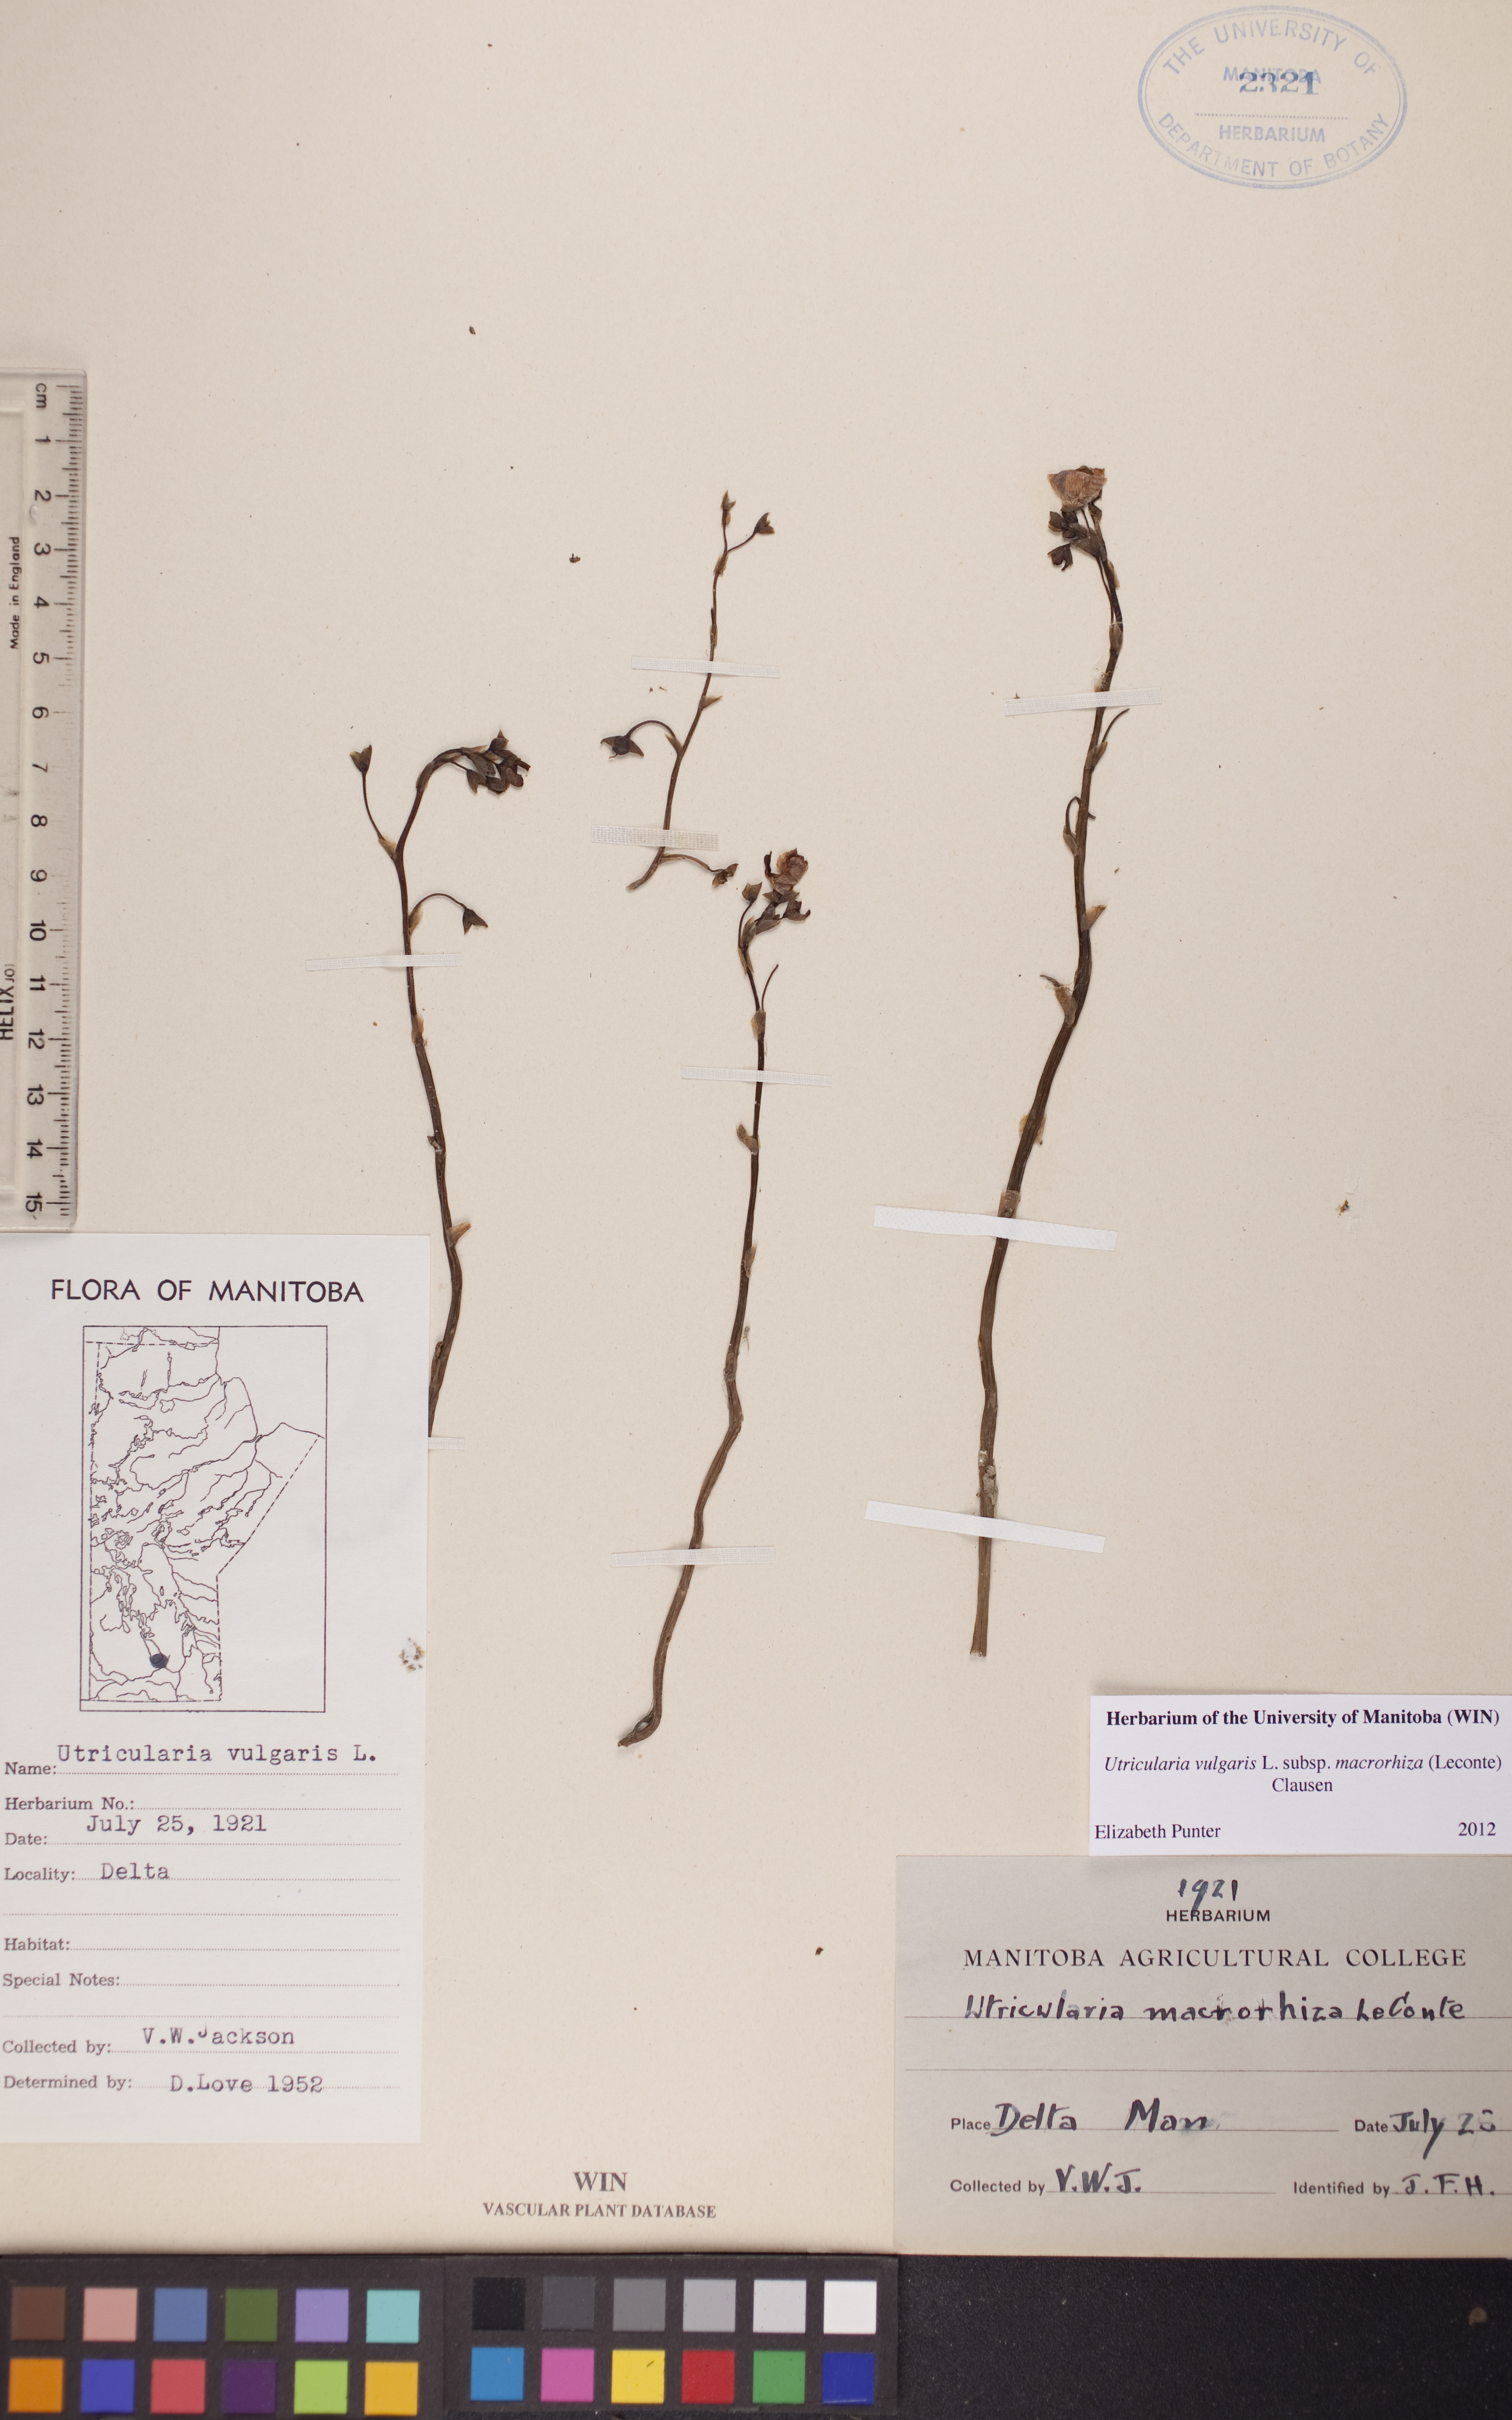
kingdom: Plantae
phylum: Tracheophyta
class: Magnoliopsida
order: Lamiales
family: Lentibulariaceae
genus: Utricularia
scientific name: Utricularia macrorhiza
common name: Common bladderwort
